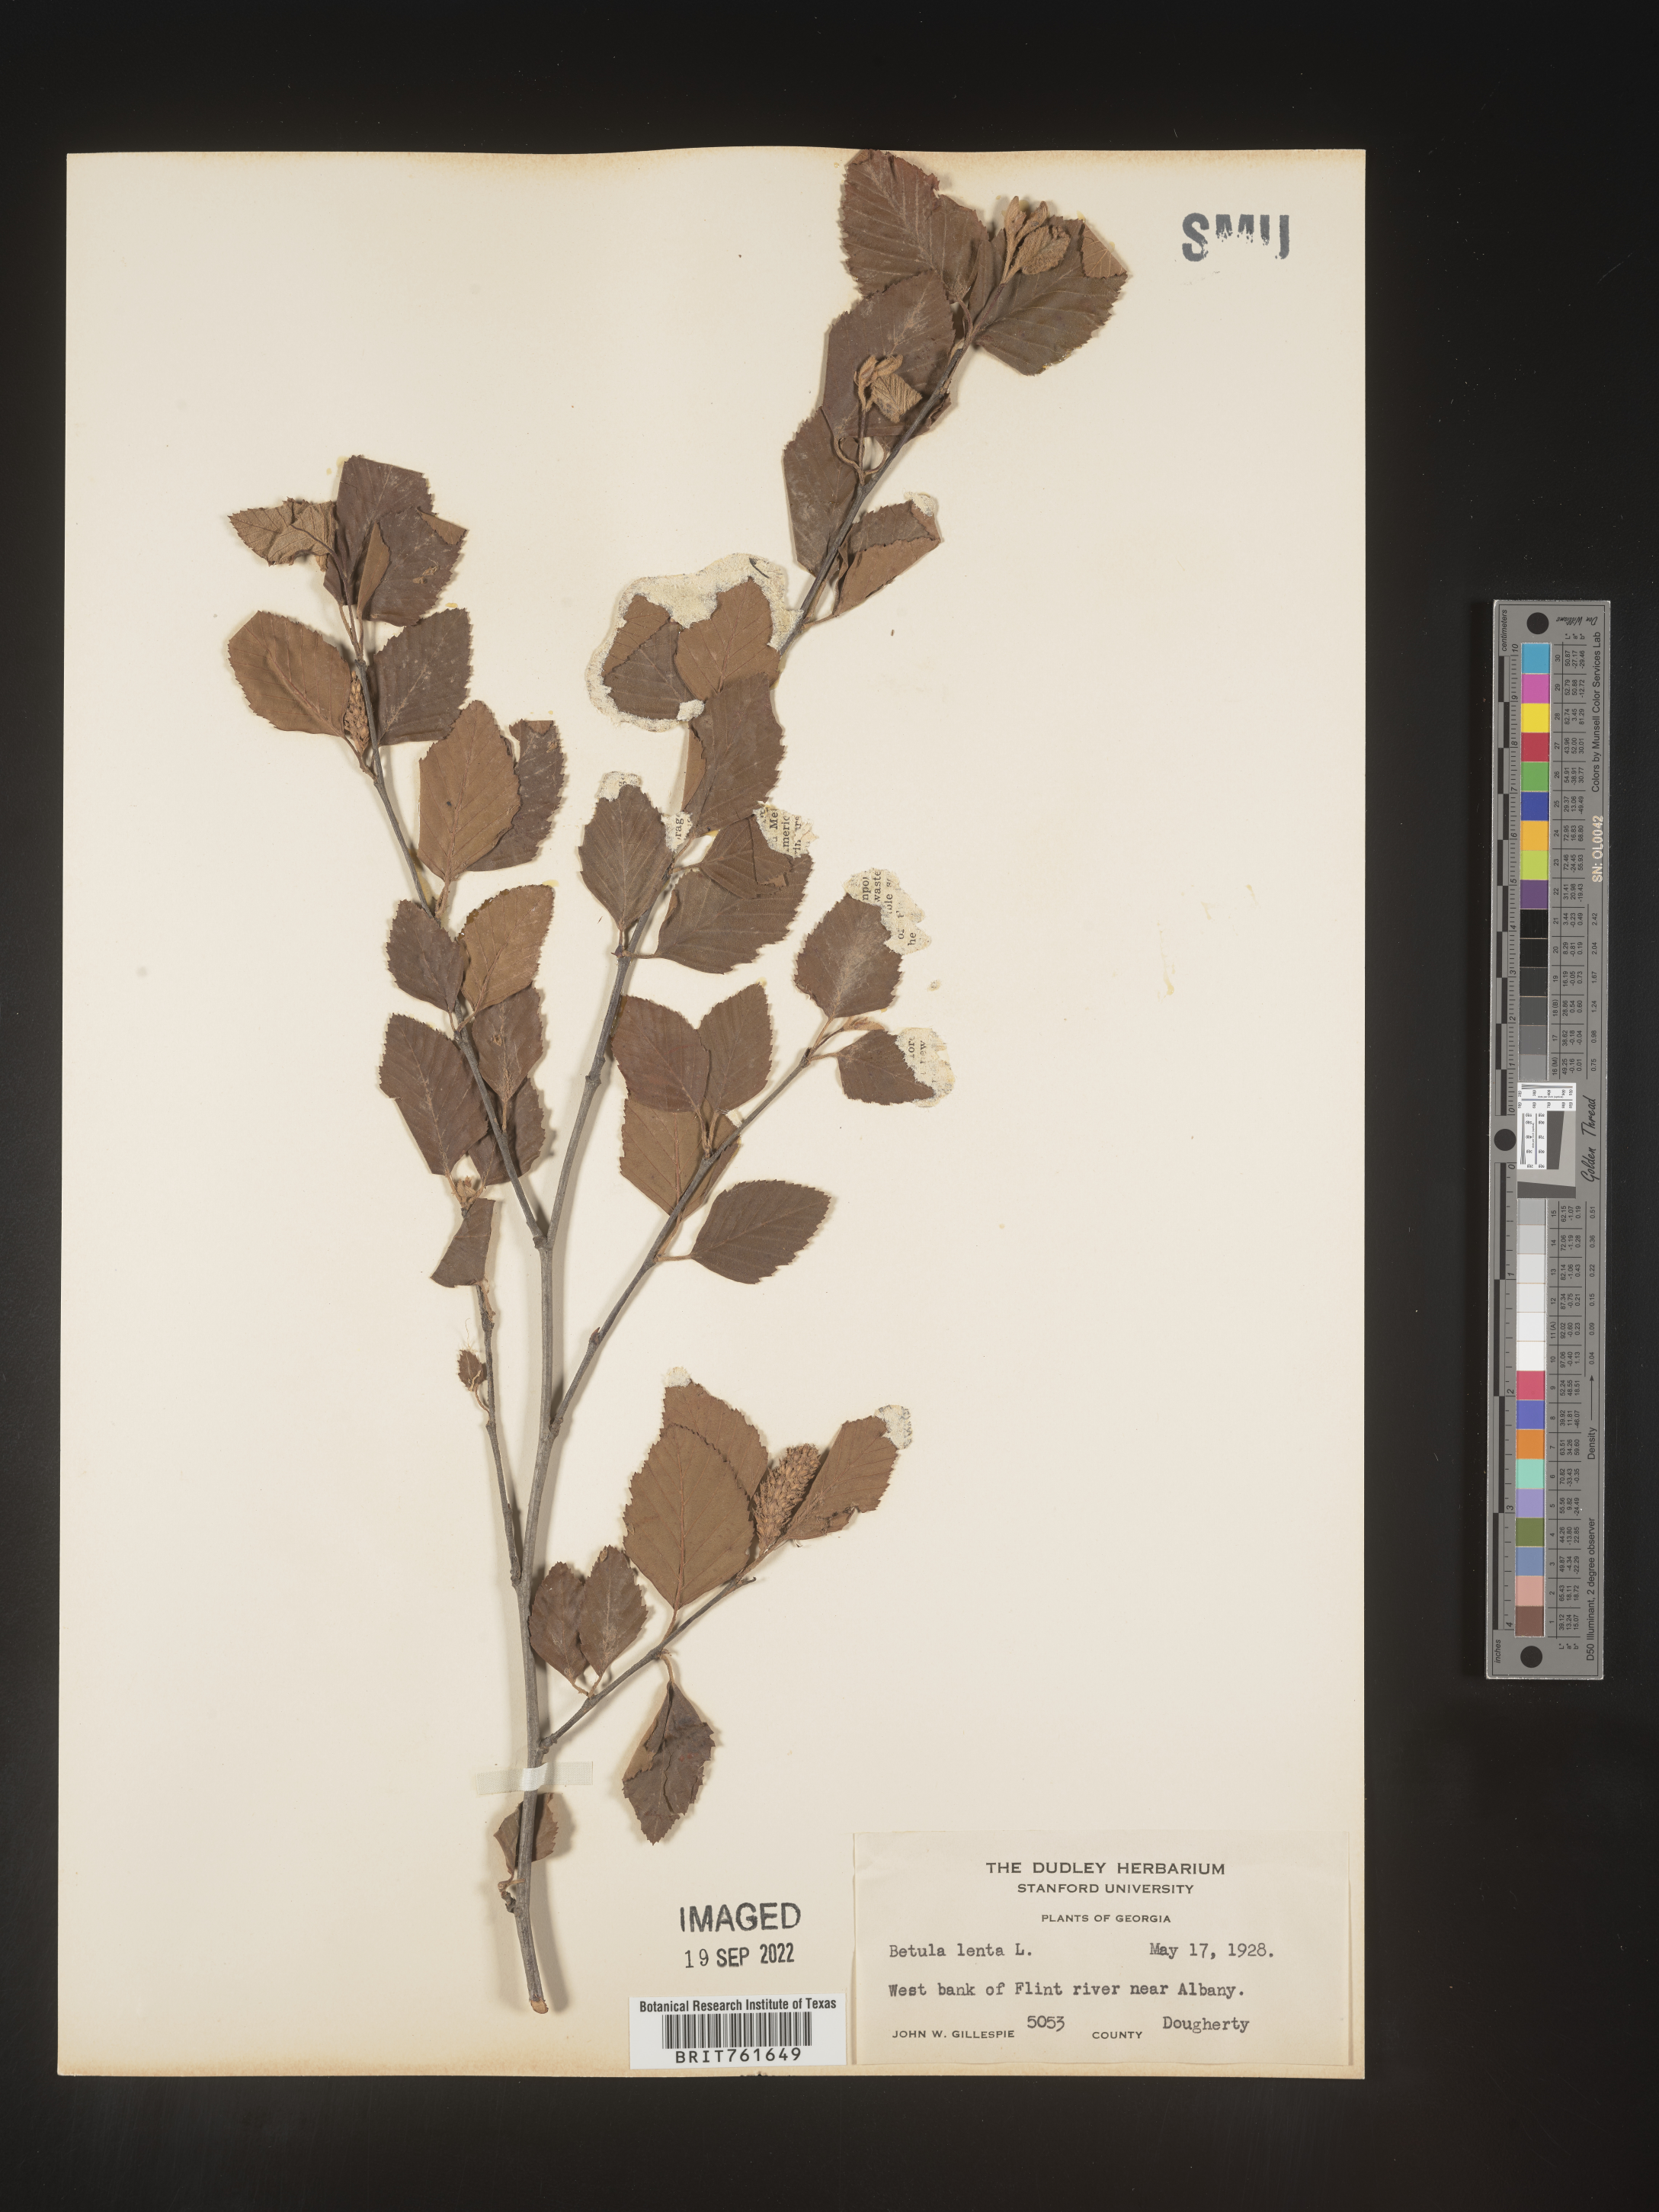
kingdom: Plantae
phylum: Tracheophyta
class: Magnoliopsida
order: Fagales
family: Betulaceae
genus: Betula
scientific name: Betula lenta
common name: Black birch
